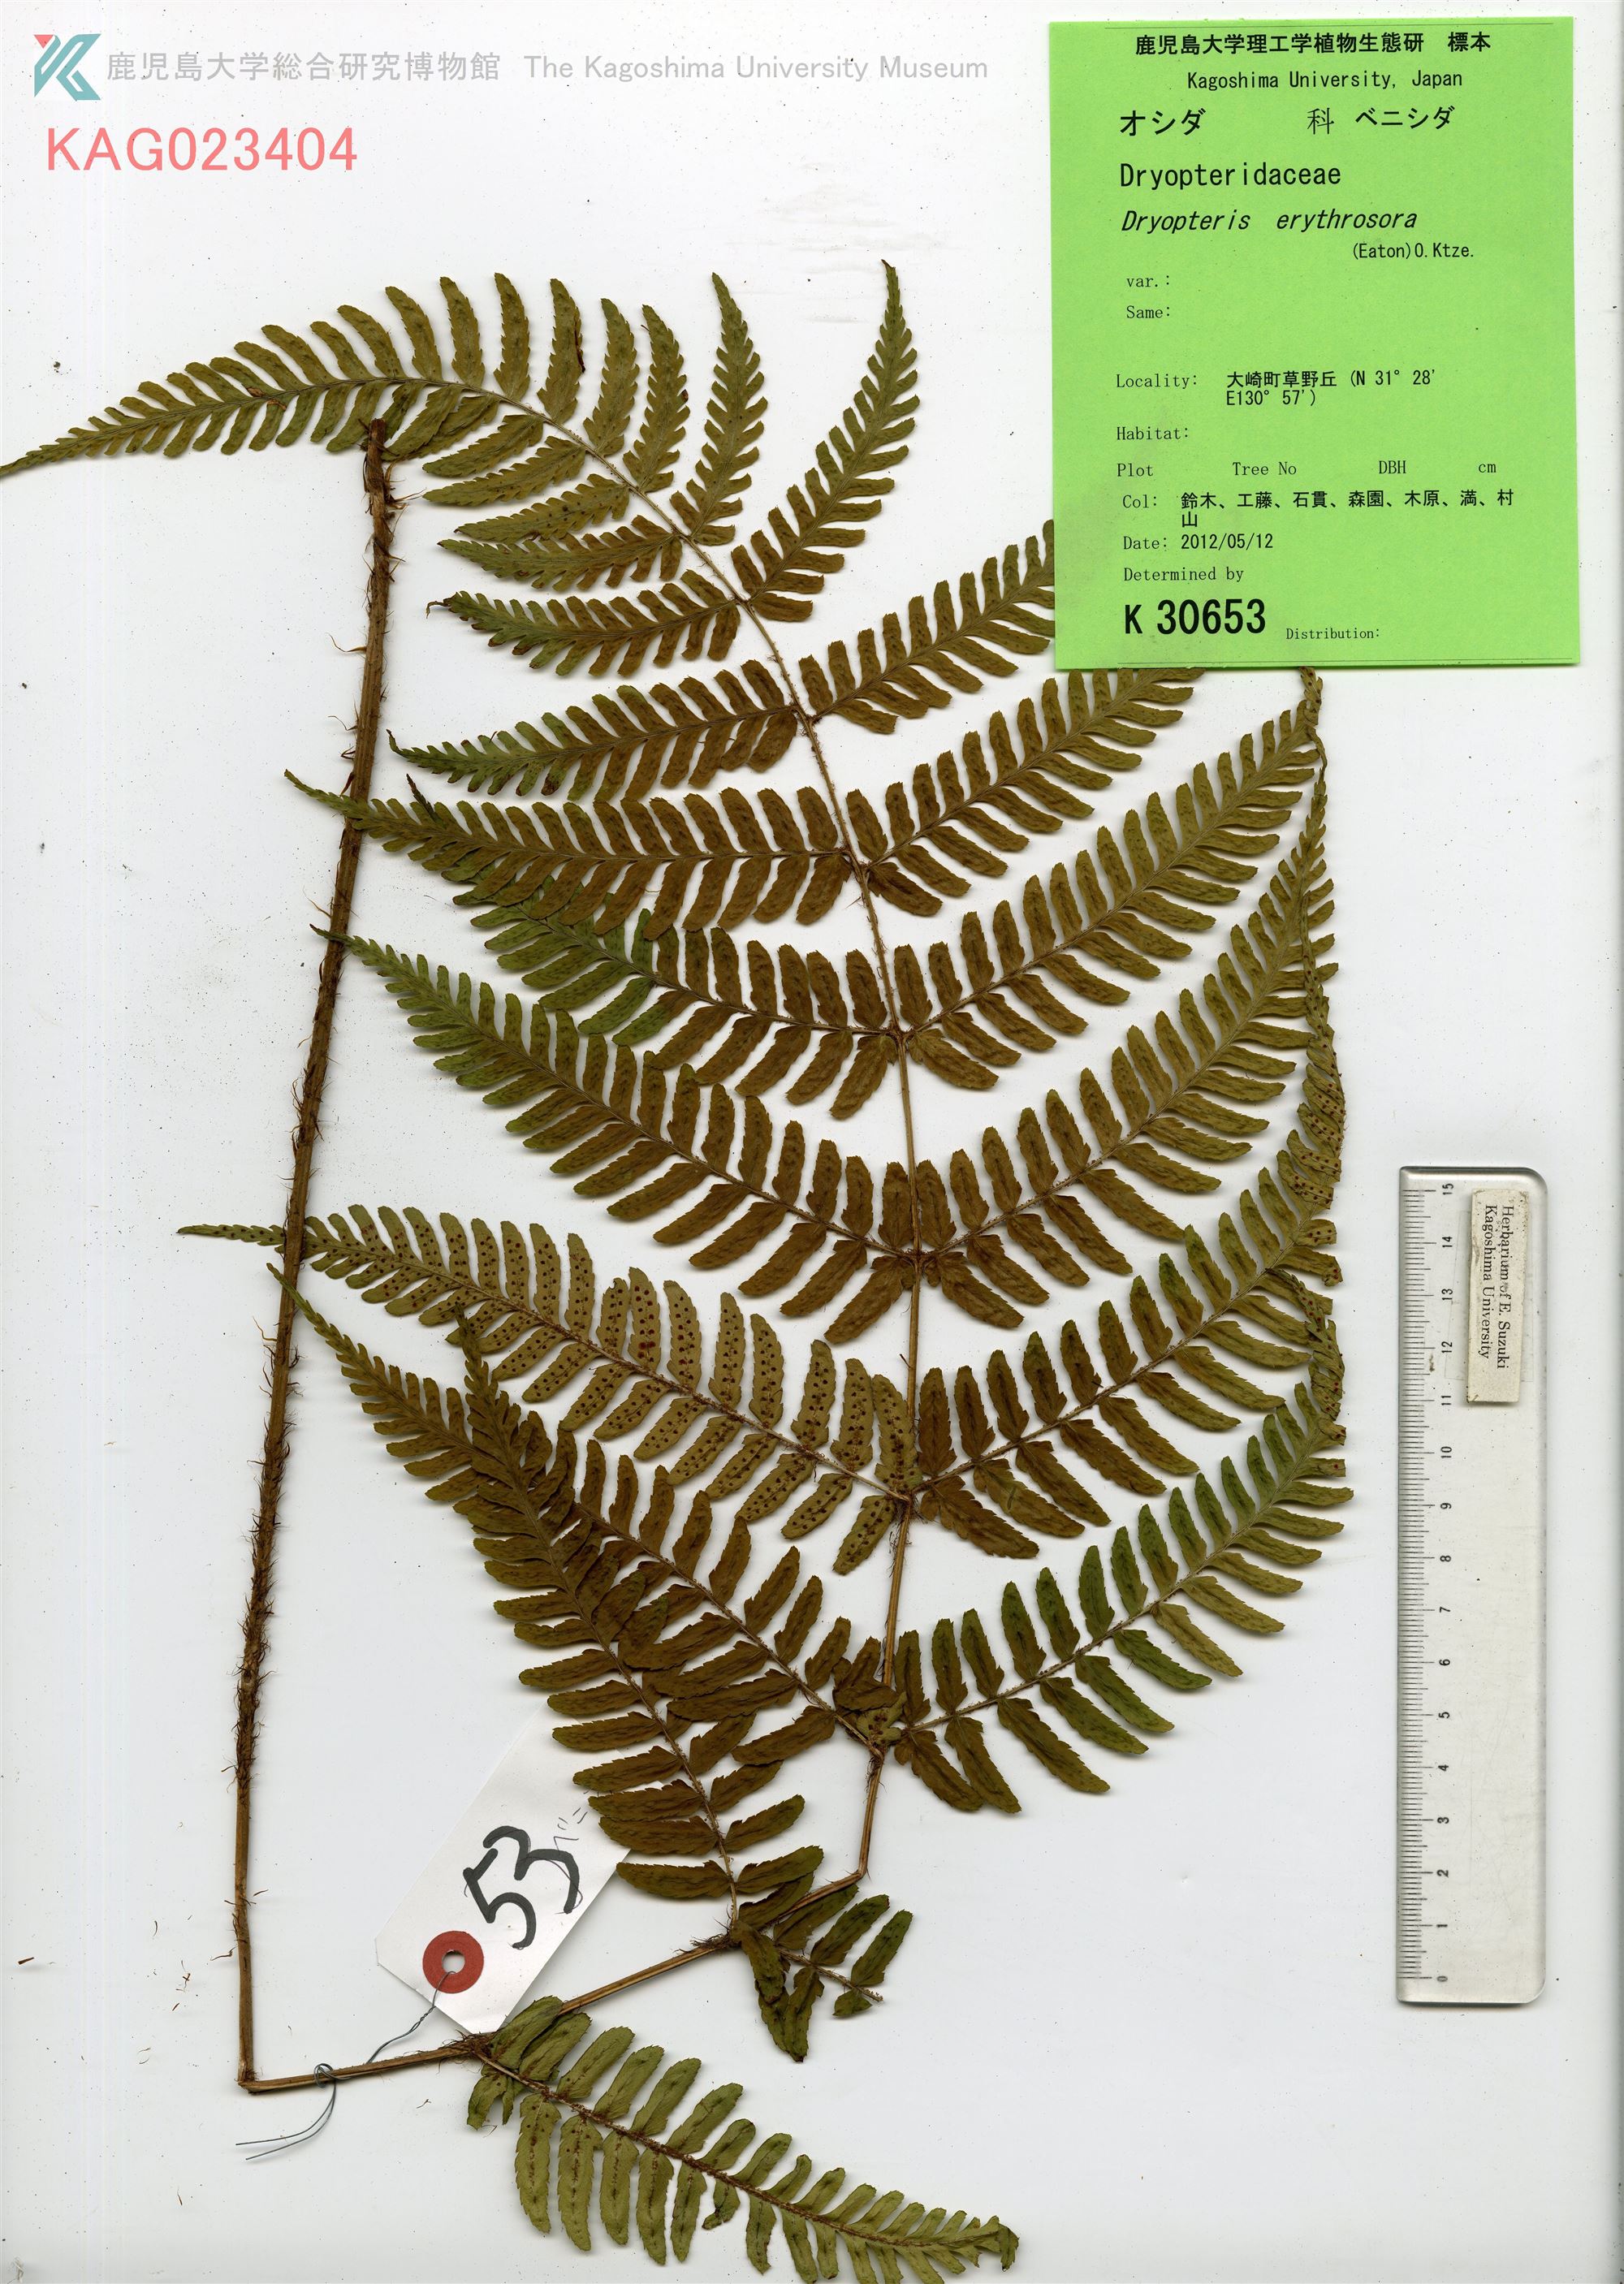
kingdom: Plantae
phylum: Tracheophyta
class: Polypodiopsida
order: Polypodiales
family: Dryopteridaceae
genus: Dryopteris
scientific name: Dryopteris erythrosora
